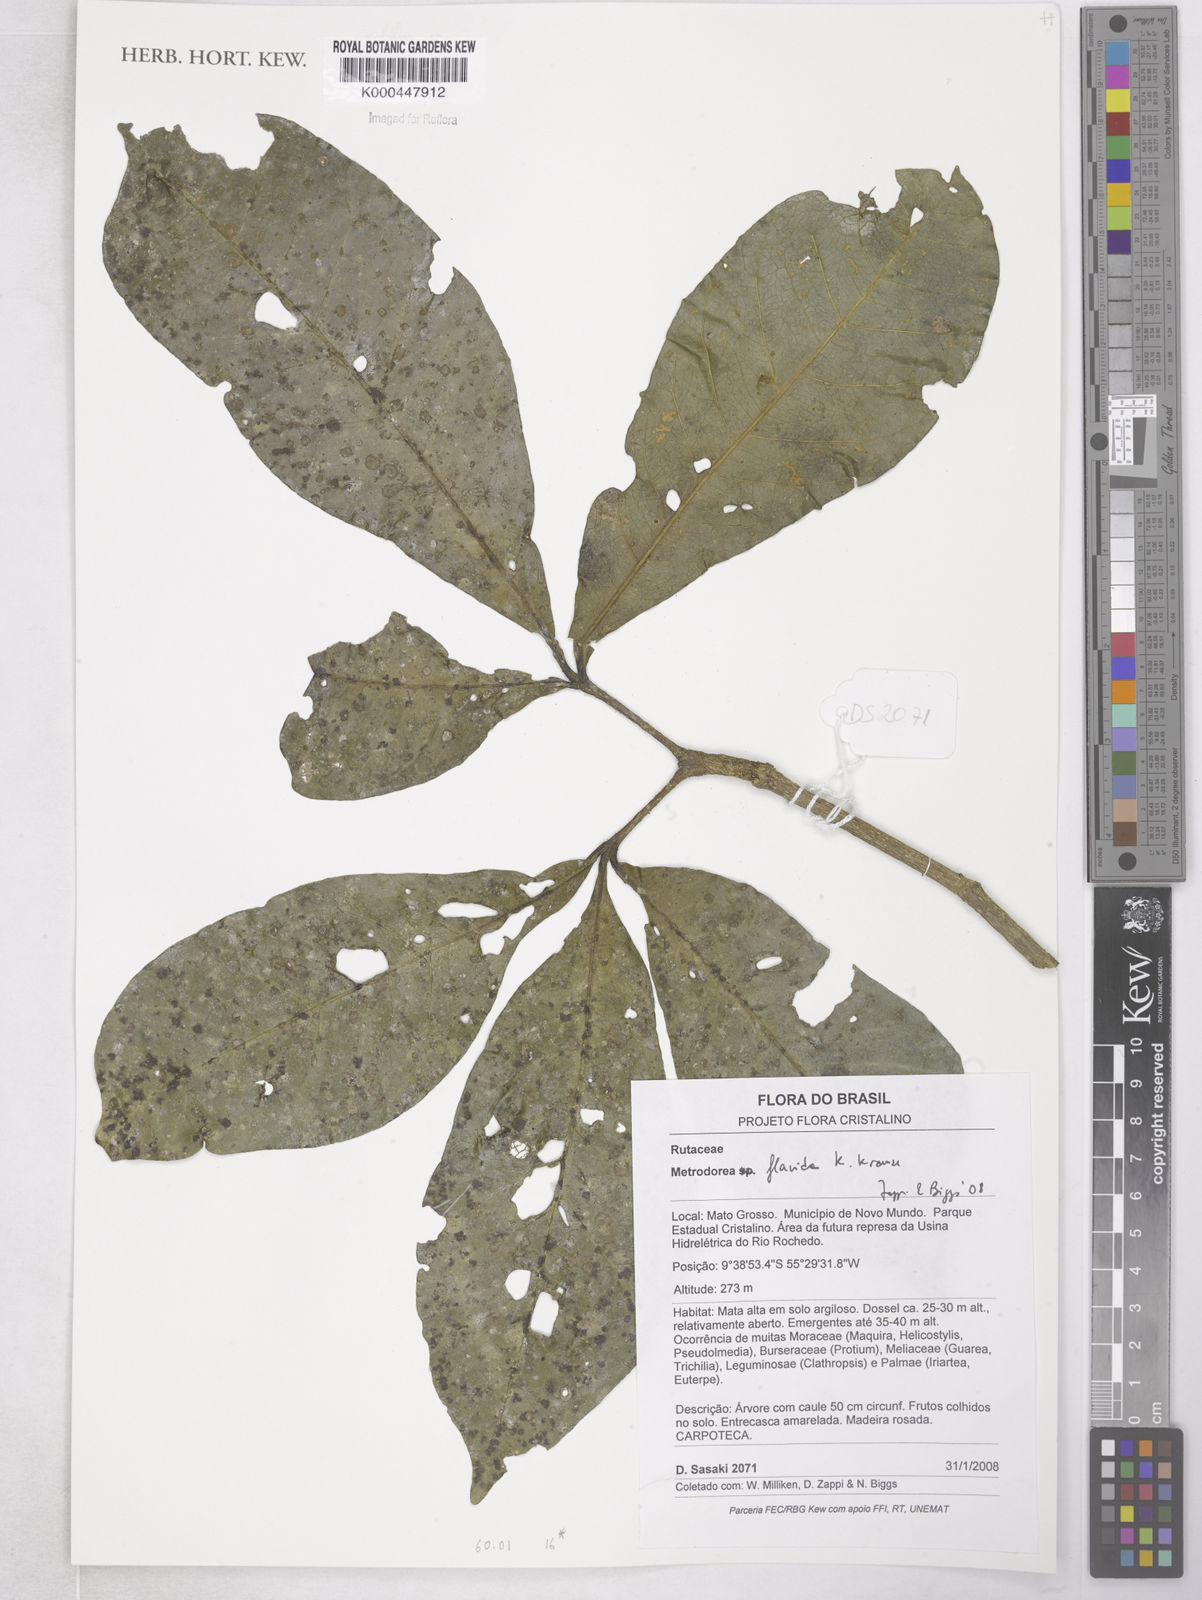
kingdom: Plantae
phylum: Tracheophyta
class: Magnoliopsida
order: Sapindales
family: Rutaceae
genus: Metrodorea
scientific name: Metrodorea flavida
